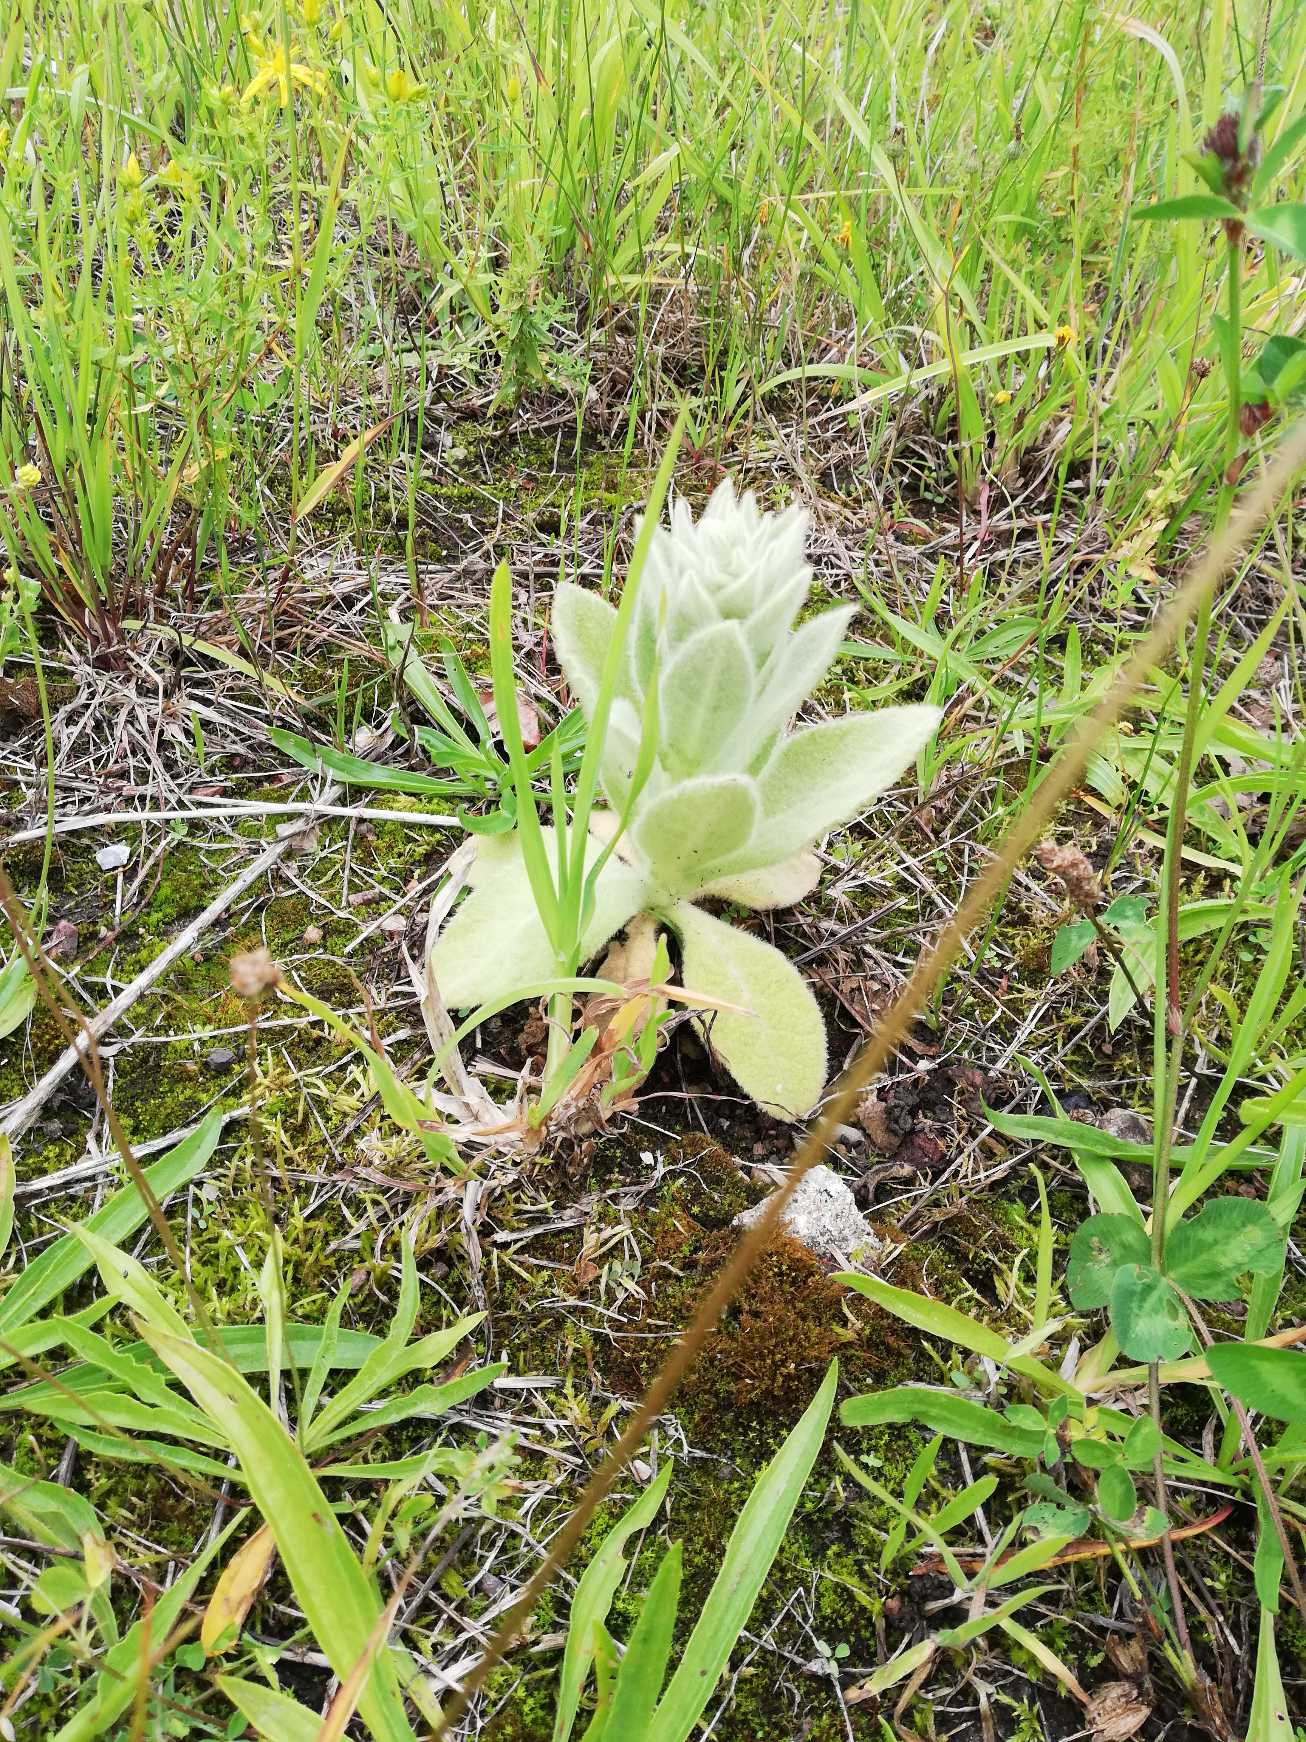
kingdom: Plantae
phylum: Tracheophyta
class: Magnoliopsida
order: Lamiales
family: Scrophulariaceae
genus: Verbascum
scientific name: Verbascum thapsus
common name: Filtbladet kongelys
